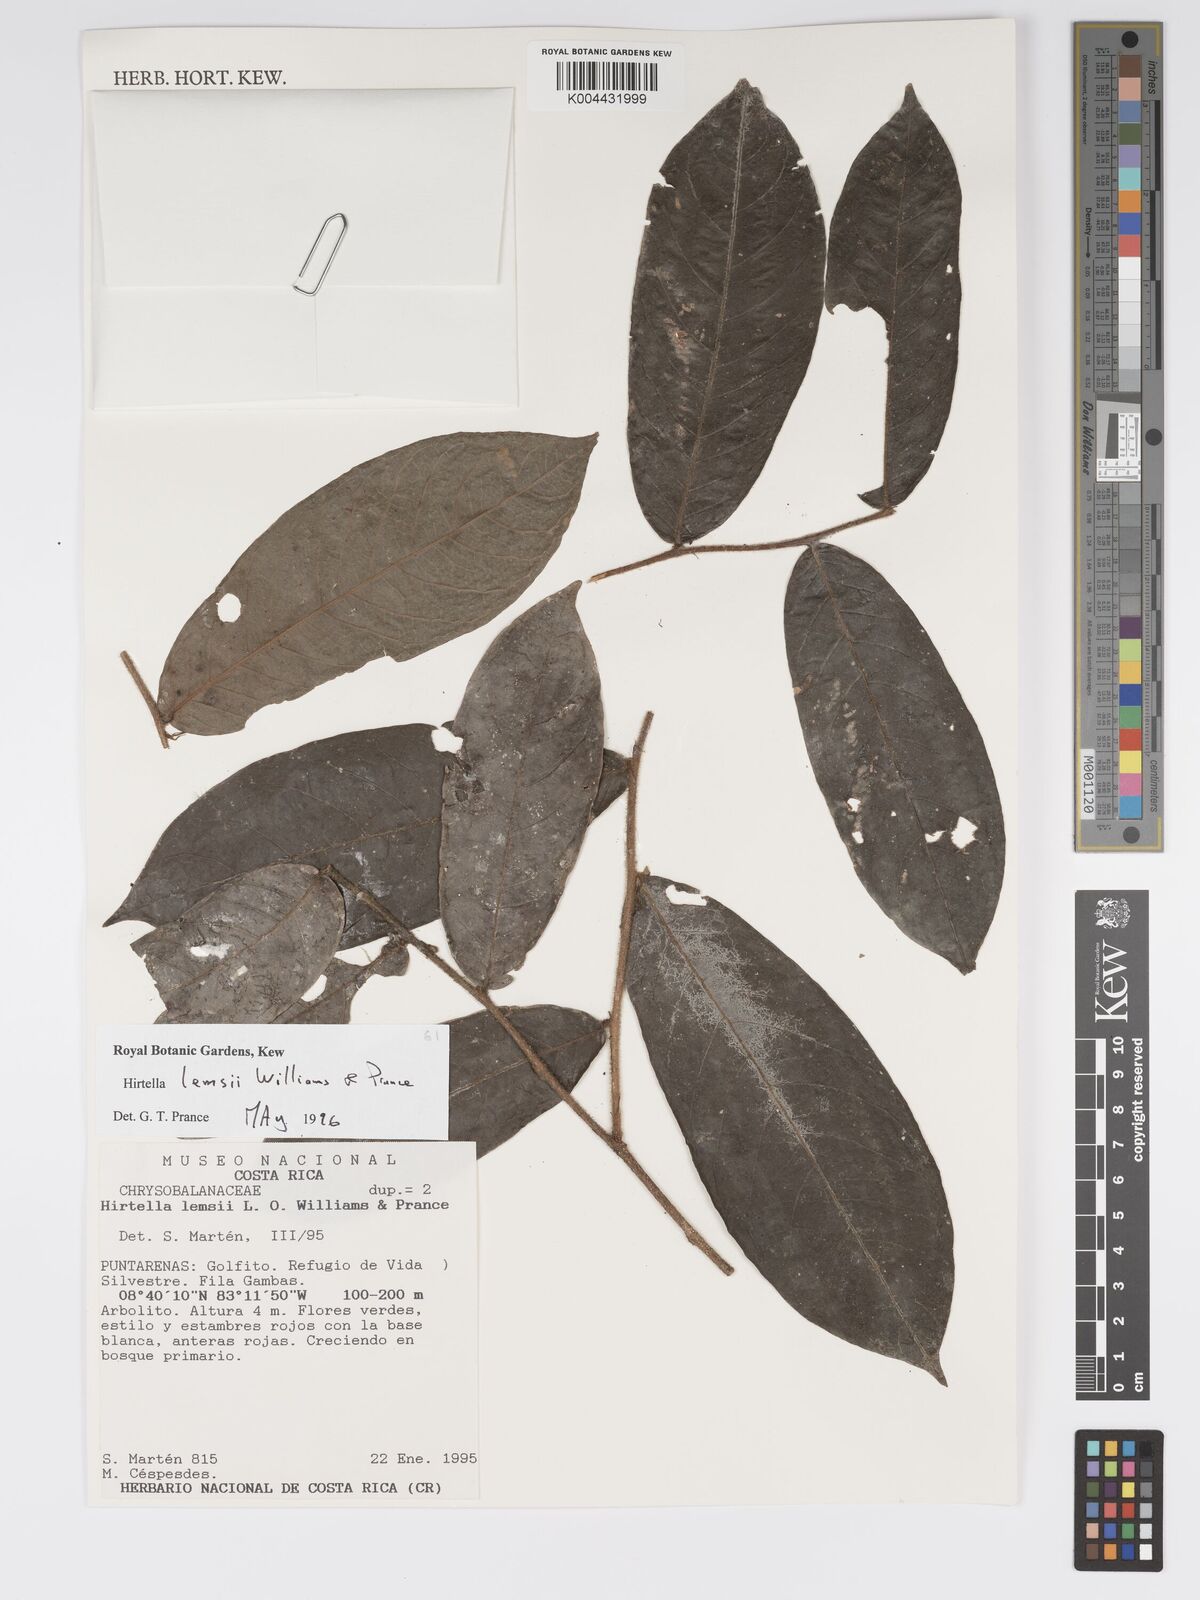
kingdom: Plantae
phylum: Tracheophyta
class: Magnoliopsida
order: Malpighiales
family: Chrysobalanaceae
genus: Hirtella
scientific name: Hirtella lemsii
